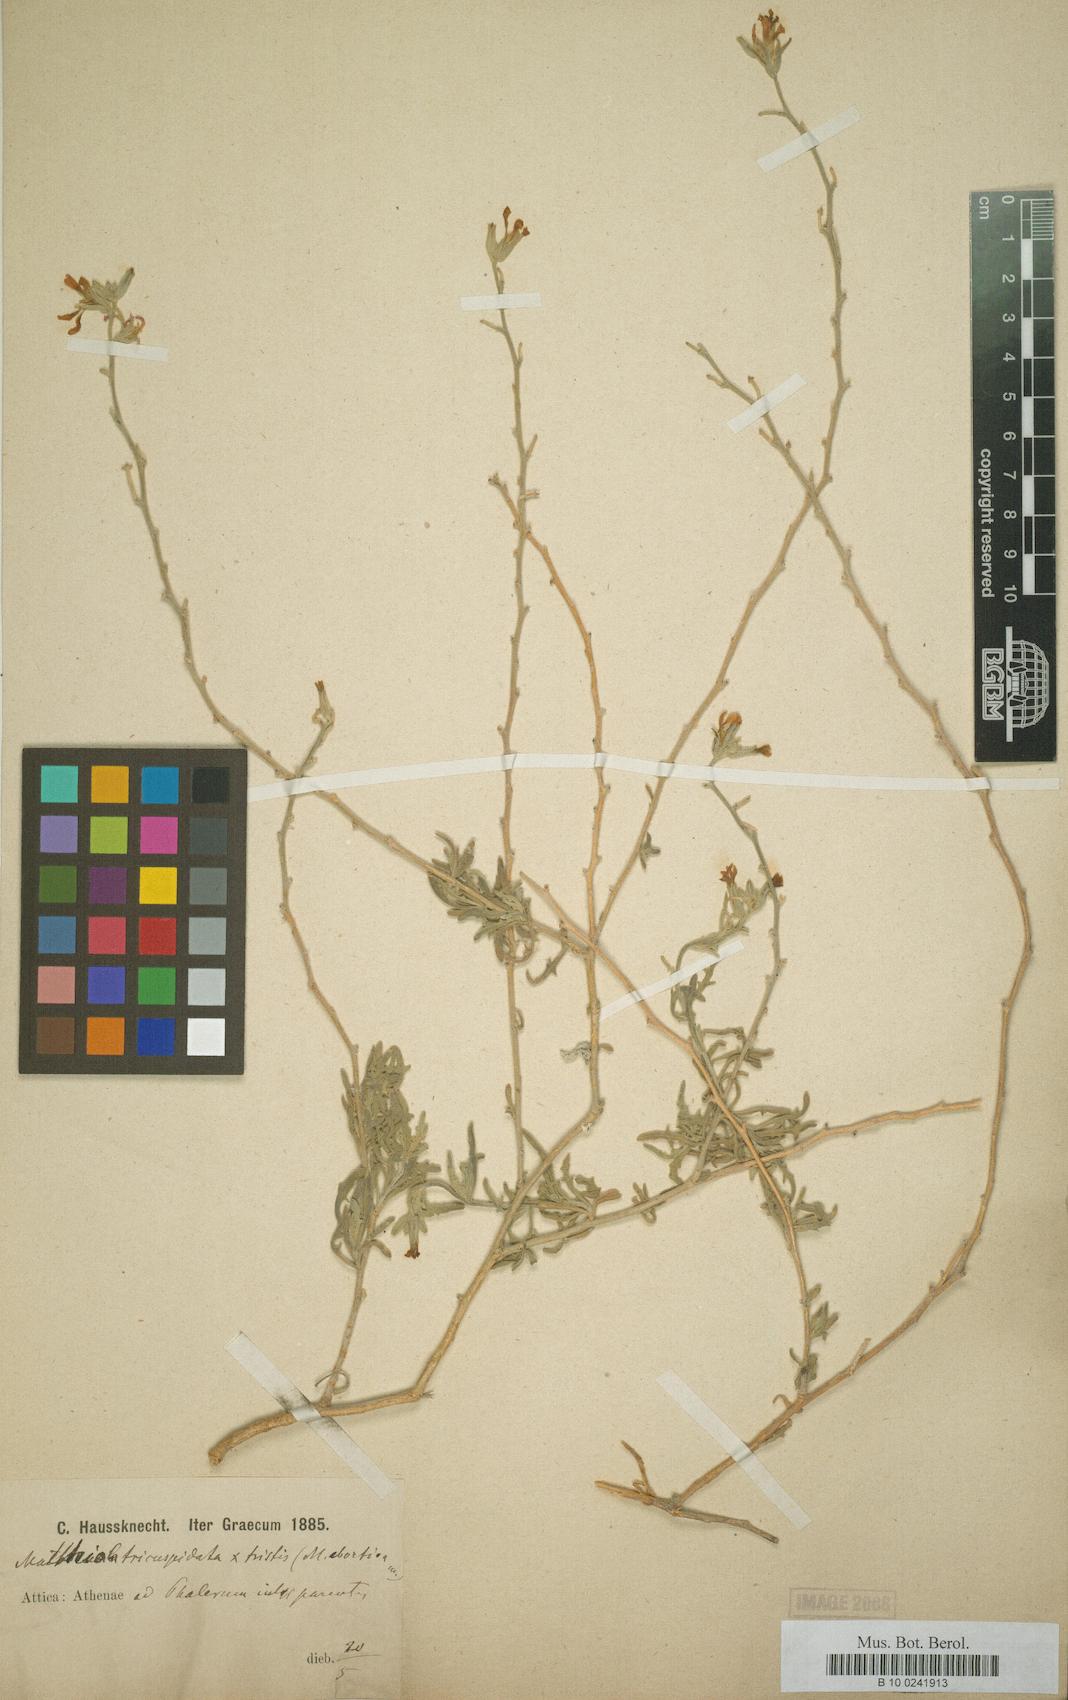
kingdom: Plantae
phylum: Tracheophyta
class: Magnoliopsida
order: Brassicales
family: Brassicaceae
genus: Matthiola
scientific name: Matthiola tricuspidata
